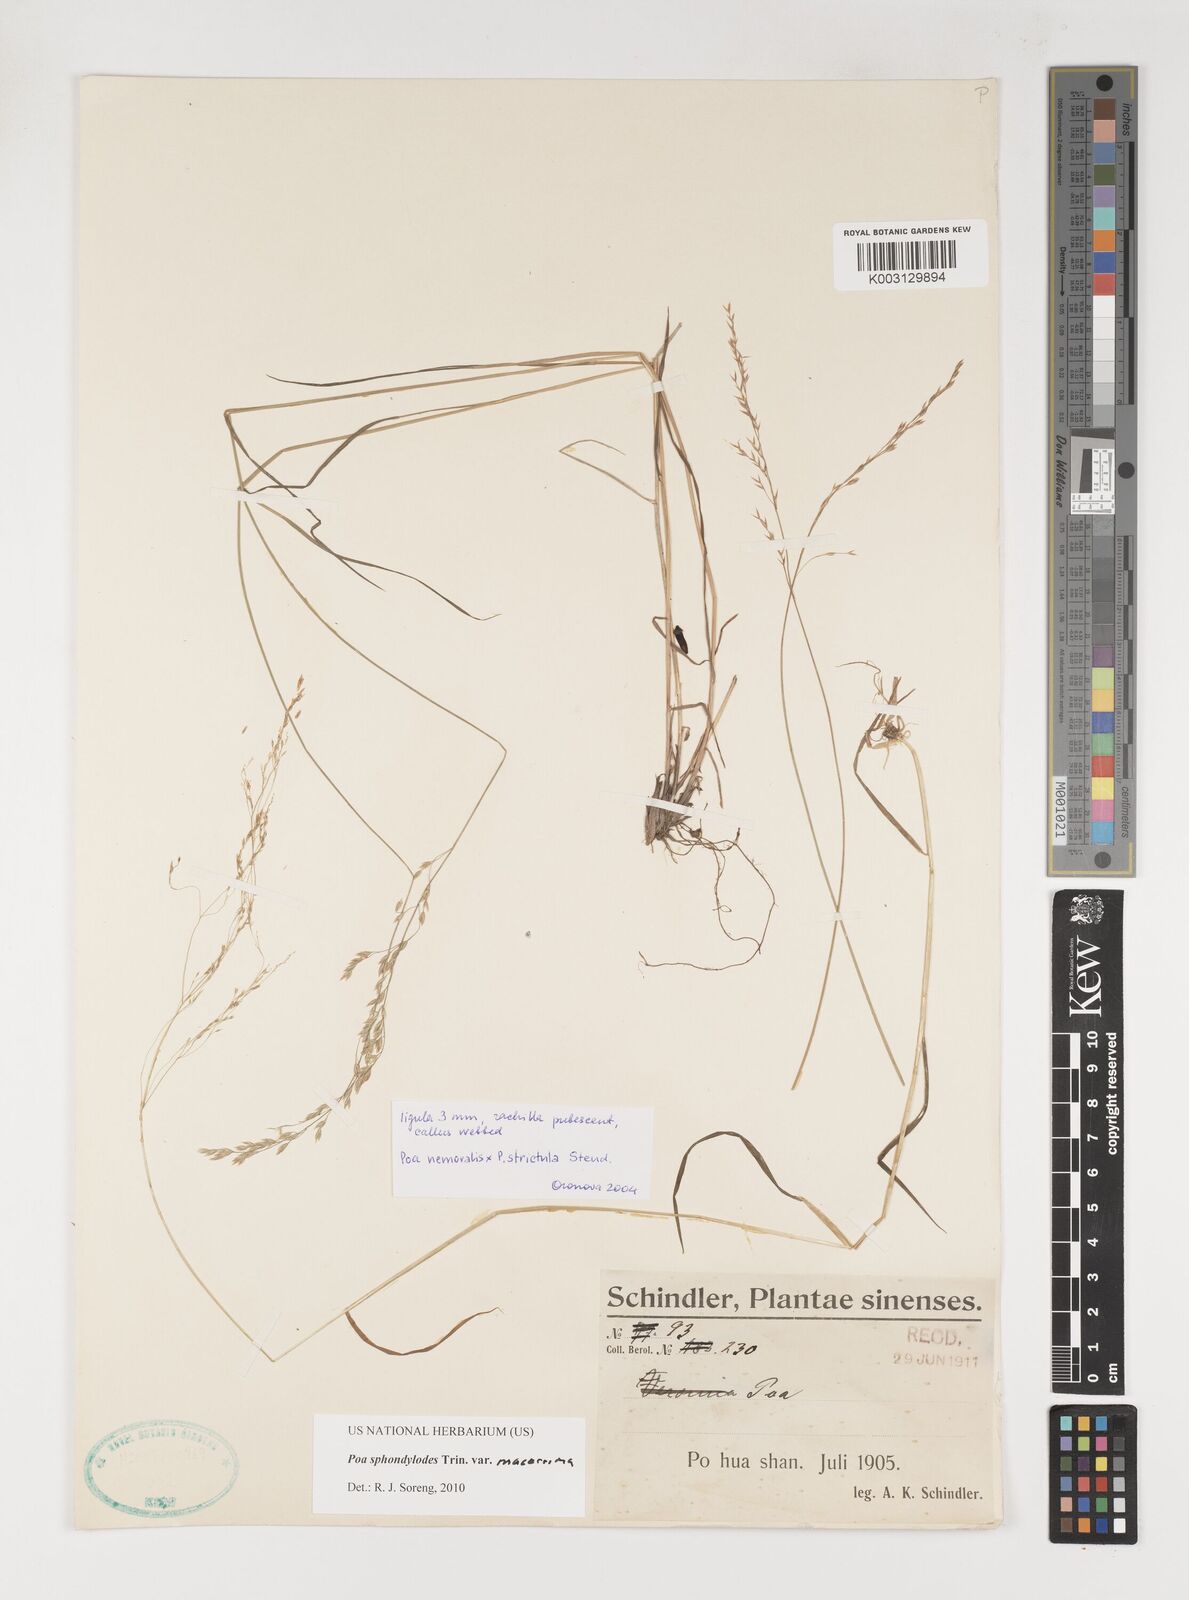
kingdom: Plantae
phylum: Tracheophyta
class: Liliopsida
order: Poales
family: Poaceae
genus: Poa
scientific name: Poa sphondylodes
